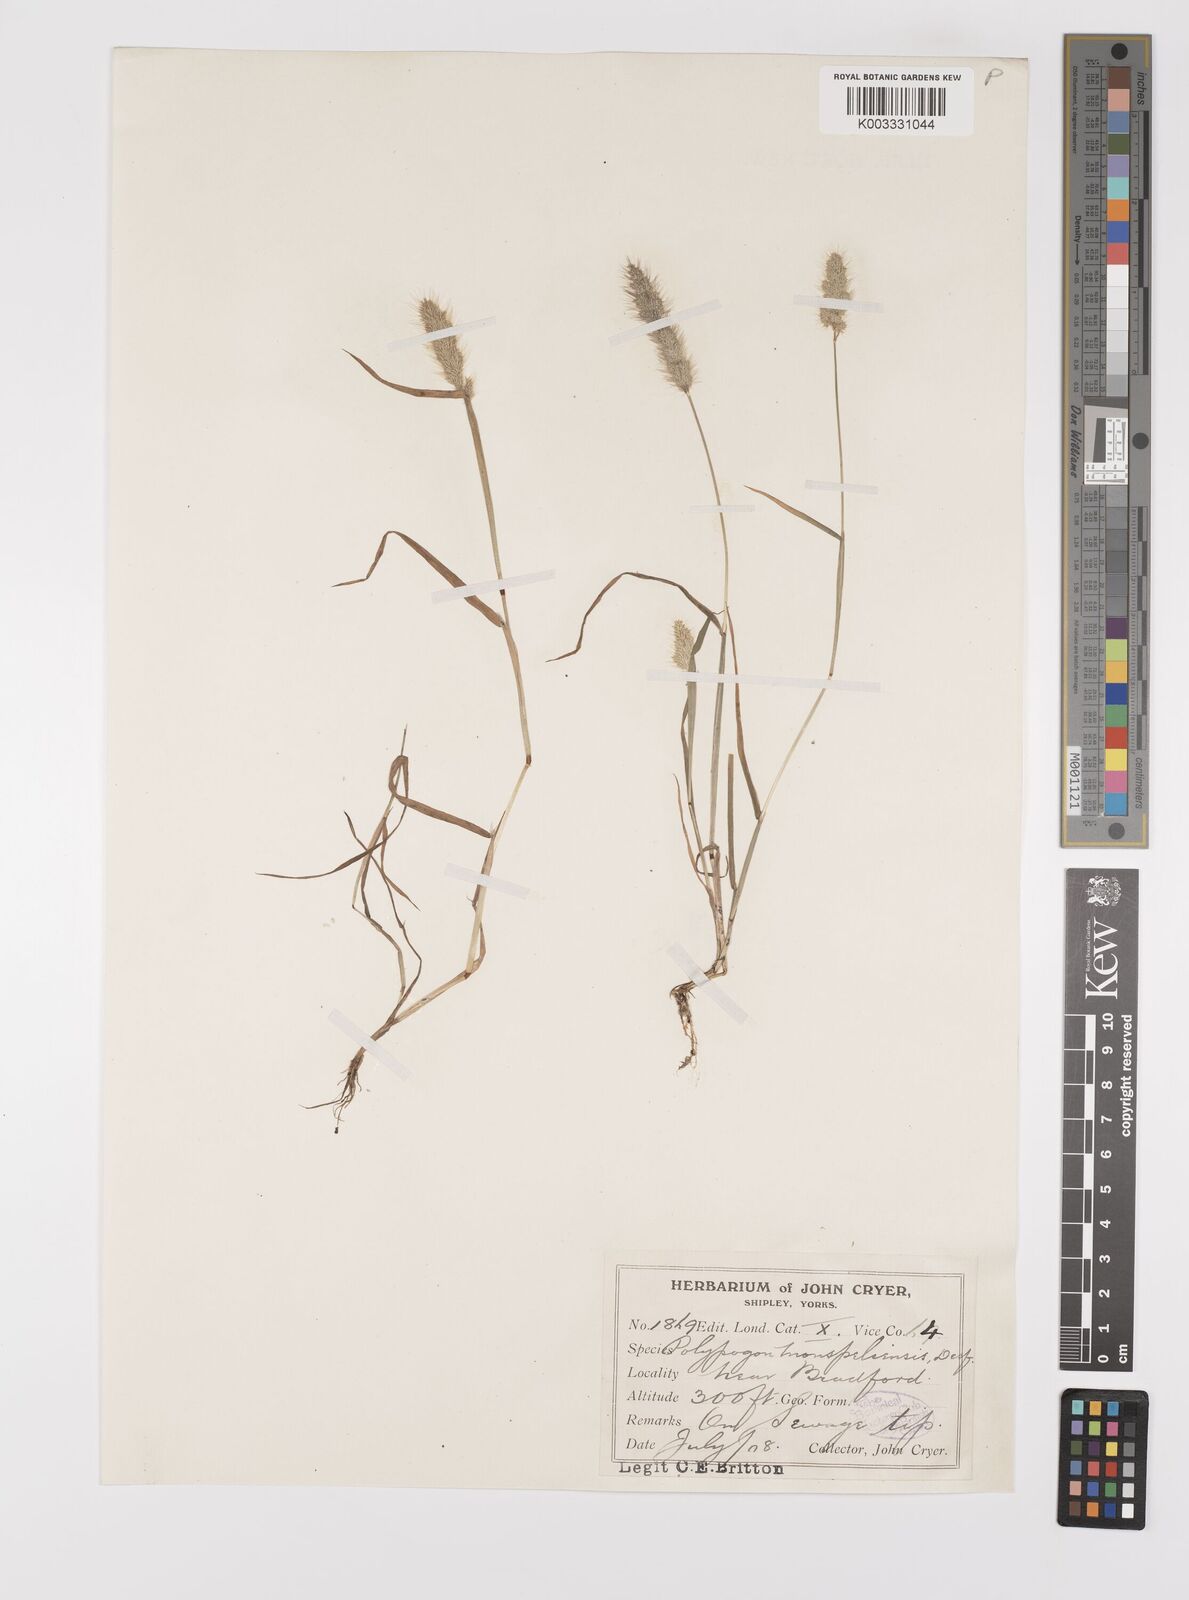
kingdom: Plantae
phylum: Tracheophyta
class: Liliopsida
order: Poales
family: Poaceae
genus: Polypogon
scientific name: Polypogon monspeliensis
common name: Annual rabbitsfoot grass
